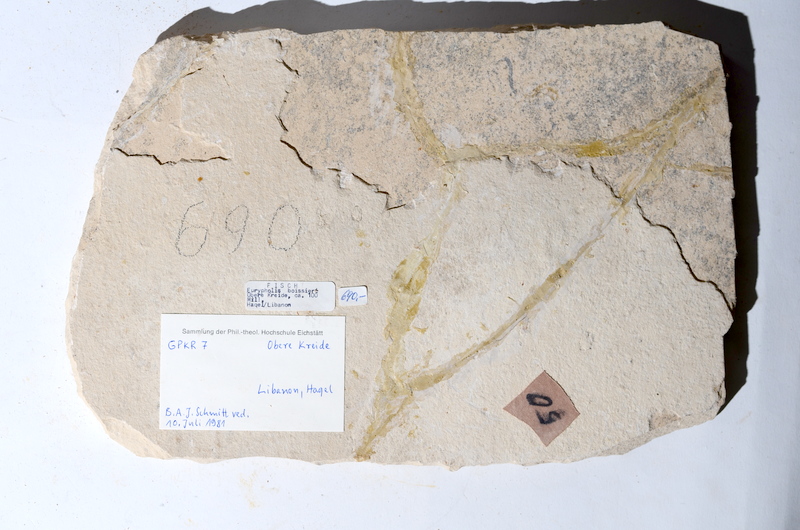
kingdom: Animalia
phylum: Chordata
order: Salmoniformes
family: Eurypholidae
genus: Eurypholis
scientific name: Eurypholis boissieri
